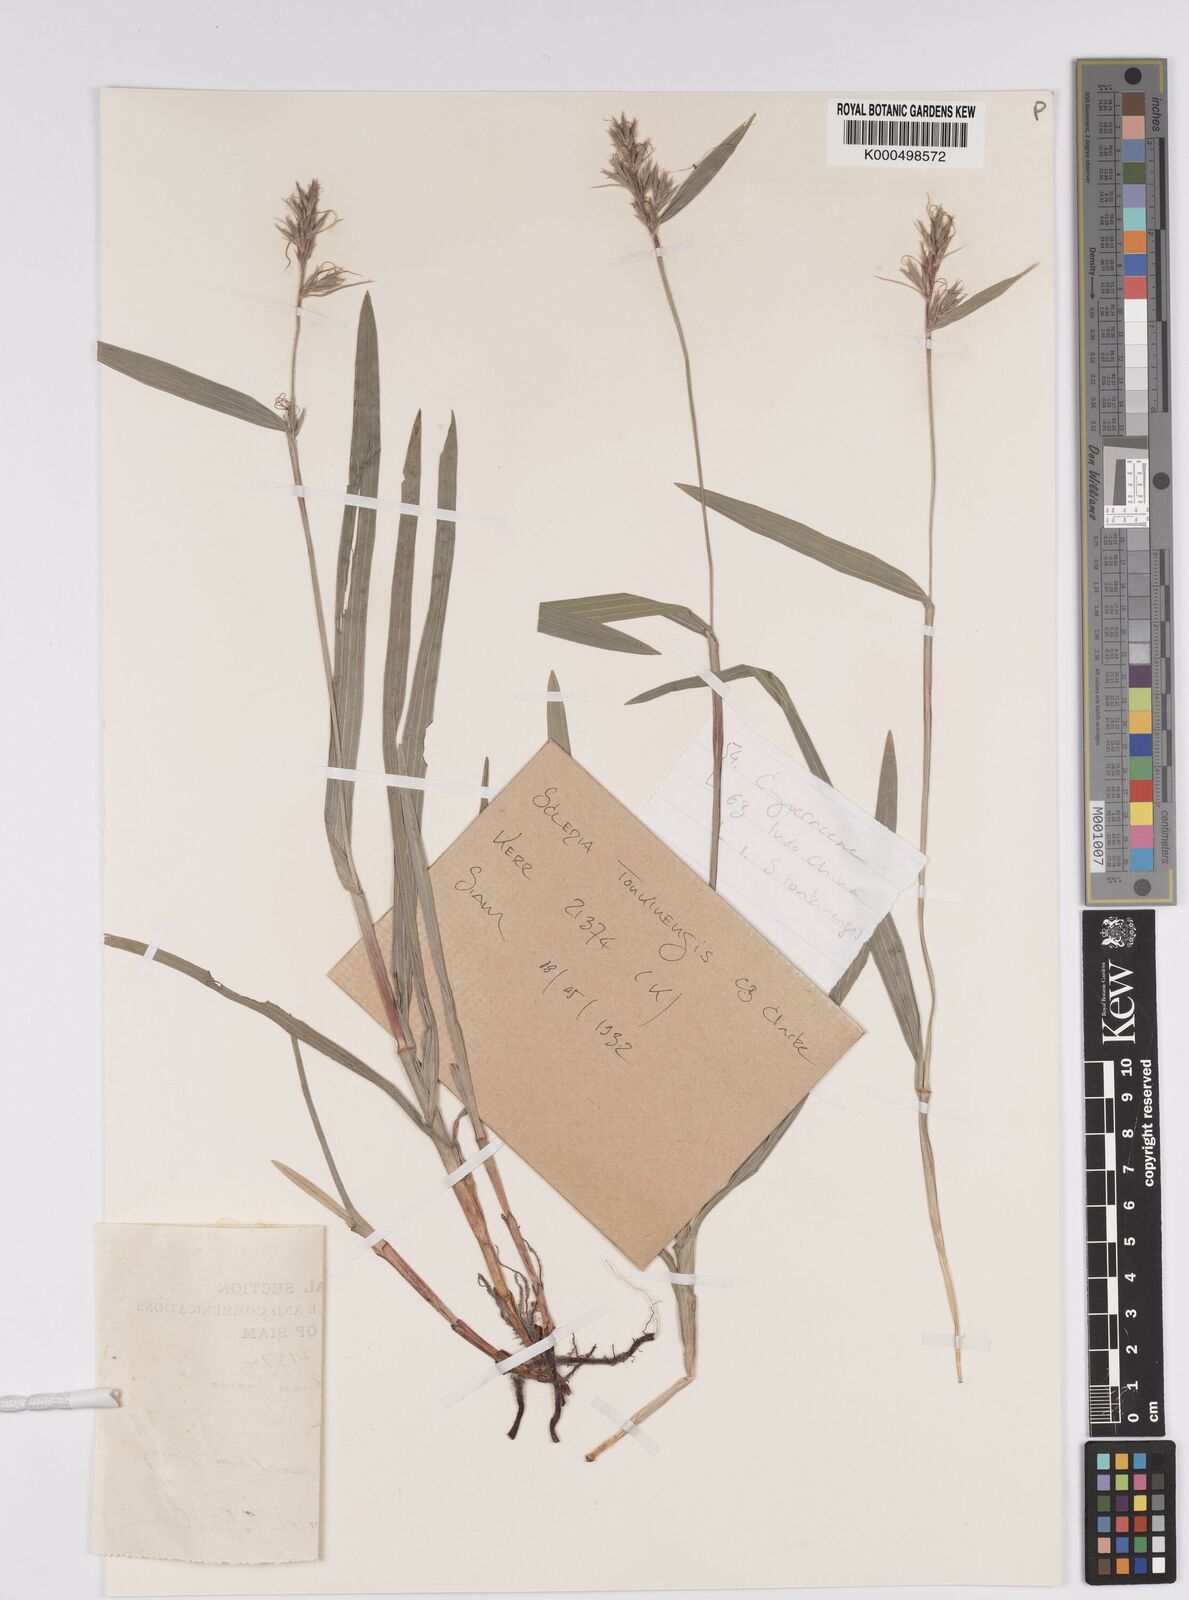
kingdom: Plantae
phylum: Tracheophyta
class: Liliopsida
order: Poales
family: Cyperaceae
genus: Scleria
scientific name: Scleria tonkinensis
